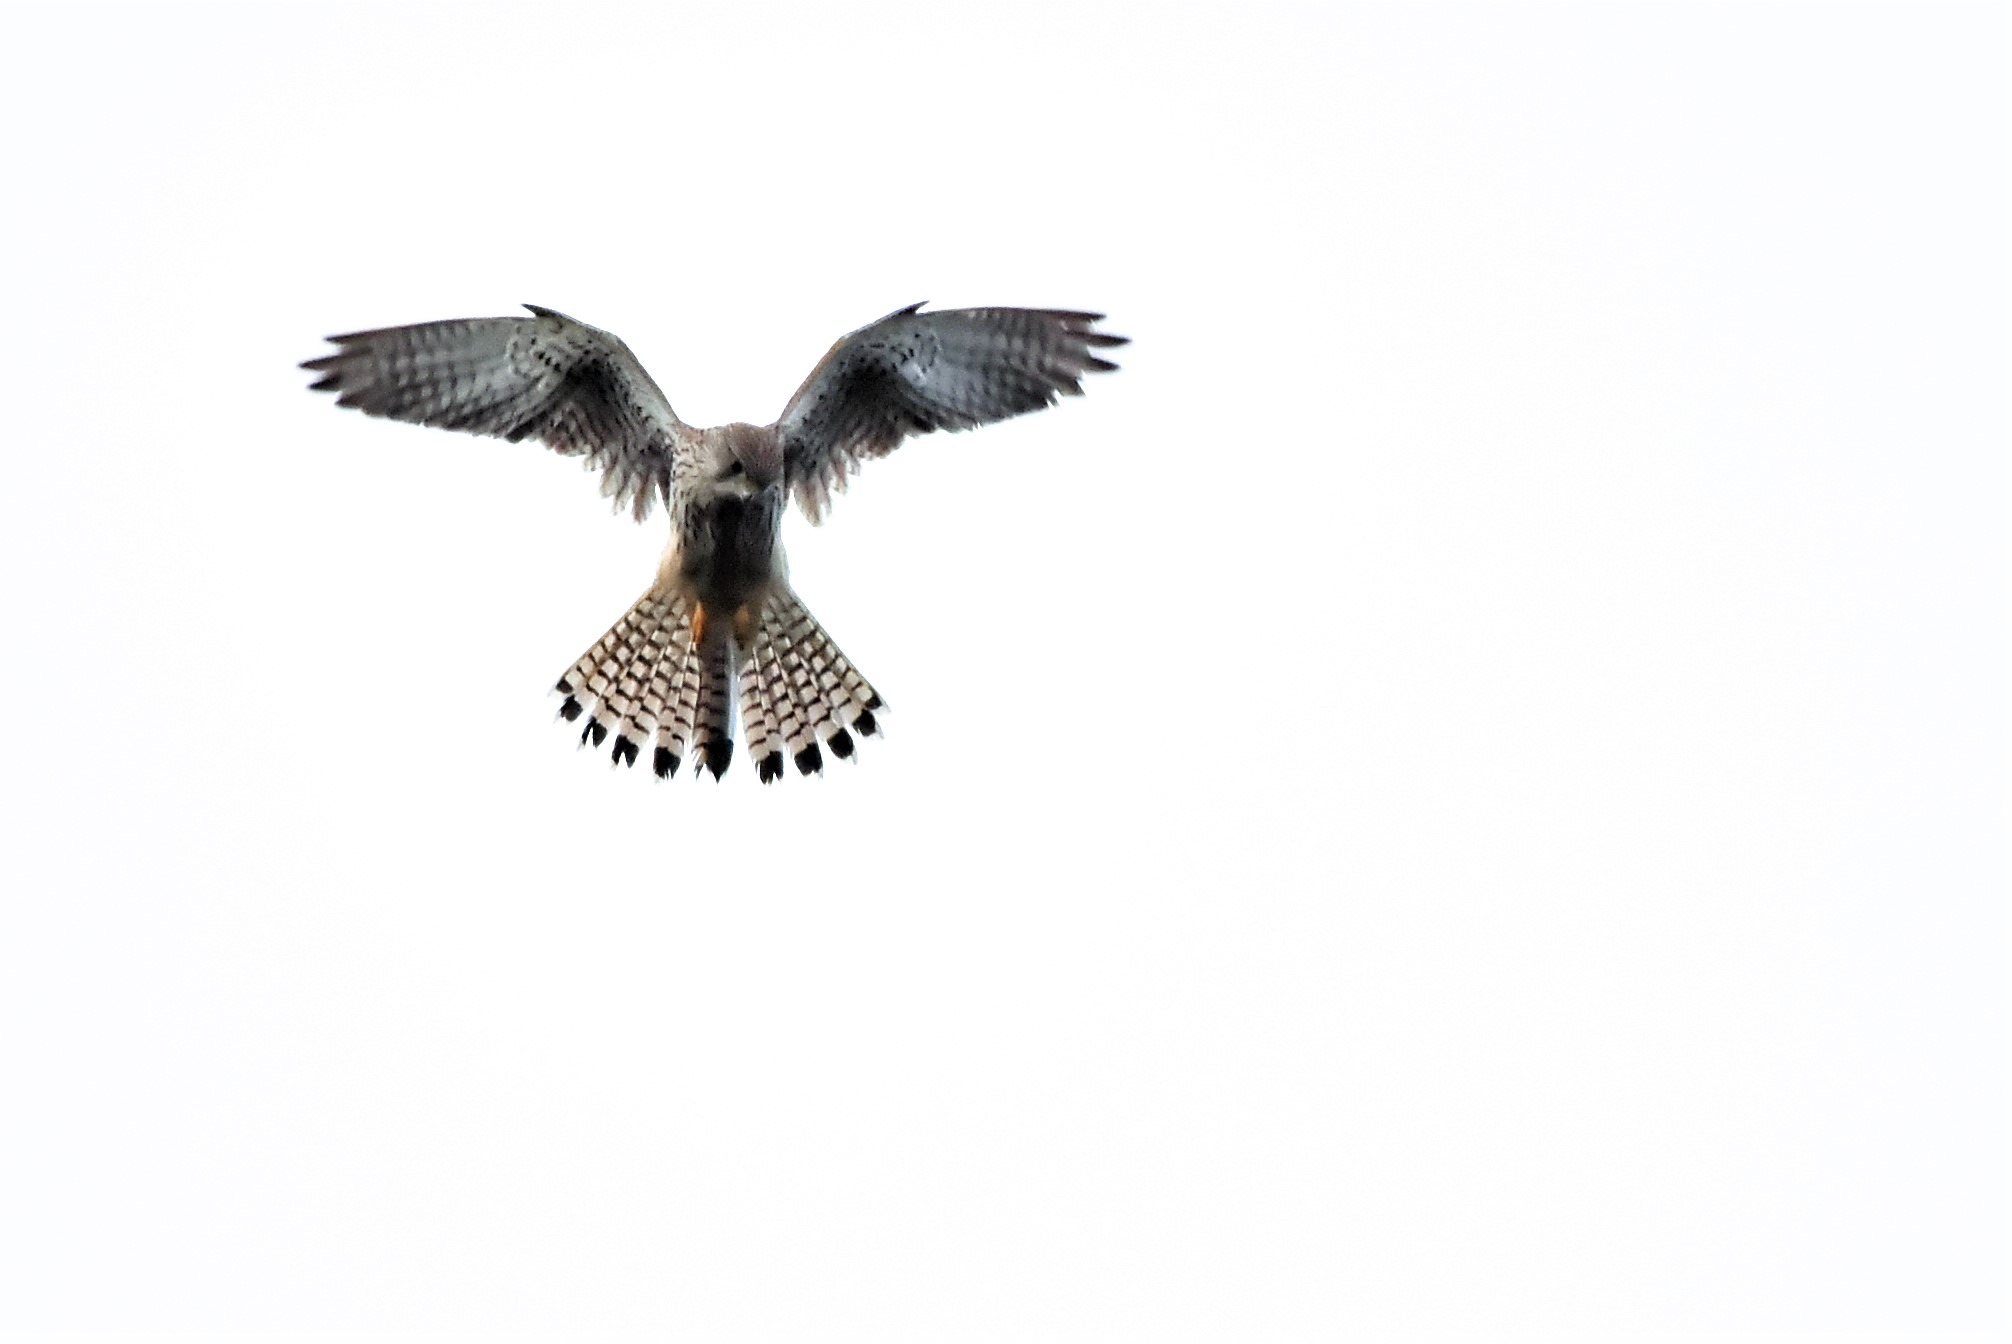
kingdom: Animalia
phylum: Chordata
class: Aves
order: Falconiformes
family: Falconidae
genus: Falco
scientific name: Falco tinnunculus
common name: Tårnfalk
